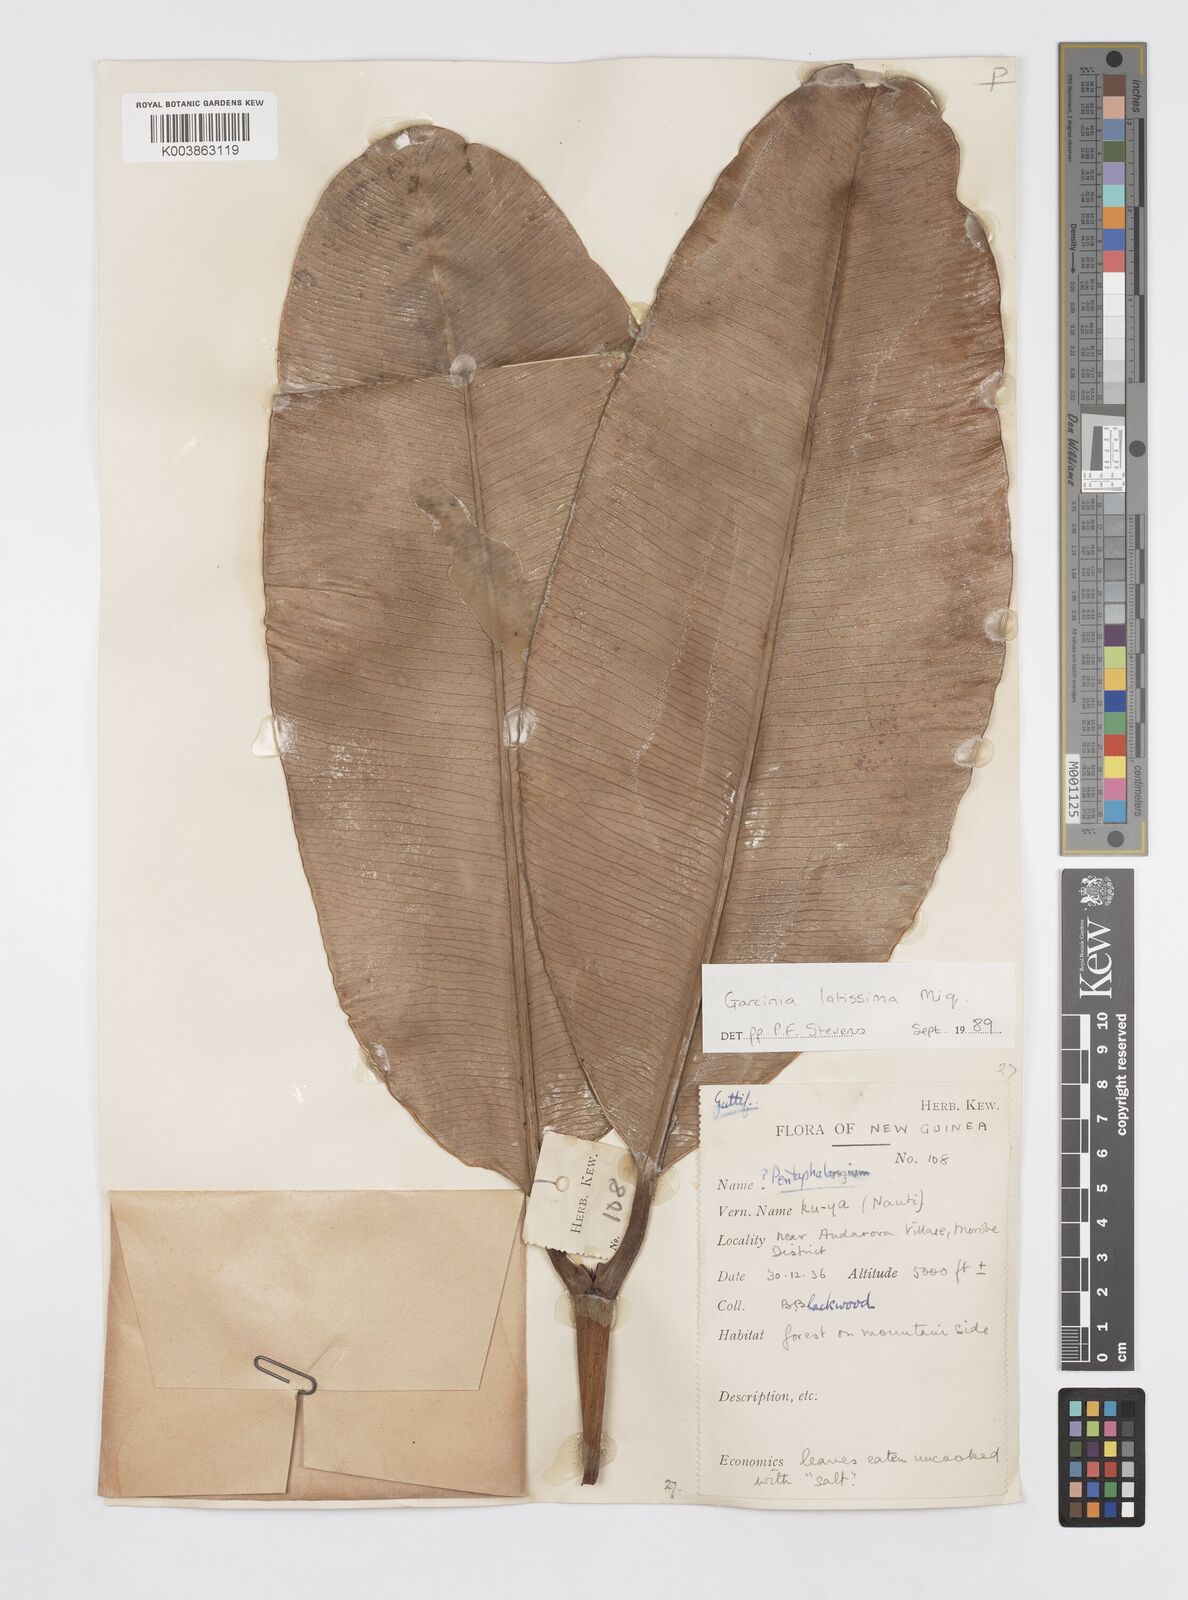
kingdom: Plantae
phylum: Tracheophyta
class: Magnoliopsida
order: Malpighiales
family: Clusiaceae
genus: Garcinia
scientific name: Garcinia latissima
